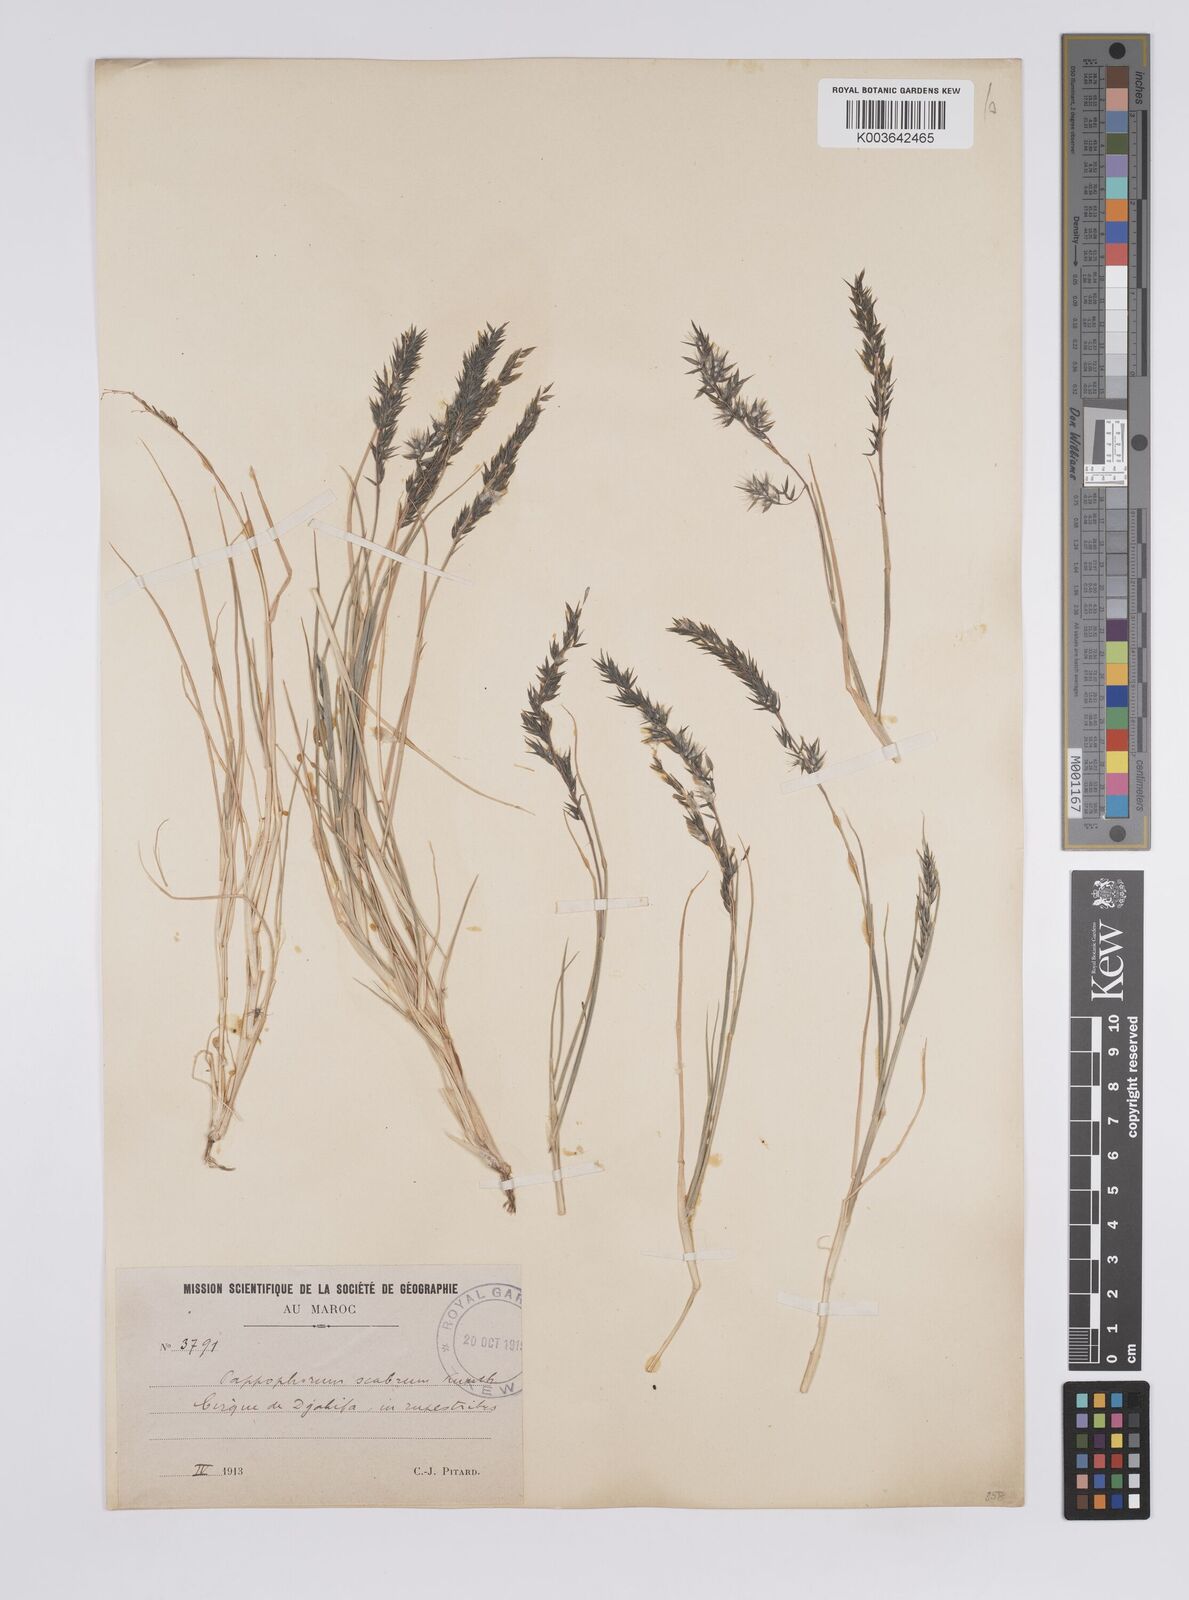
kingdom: Plantae
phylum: Tracheophyta
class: Liliopsida
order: Poales
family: Poaceae
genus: Enneapogon
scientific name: Enneapogon scaber
